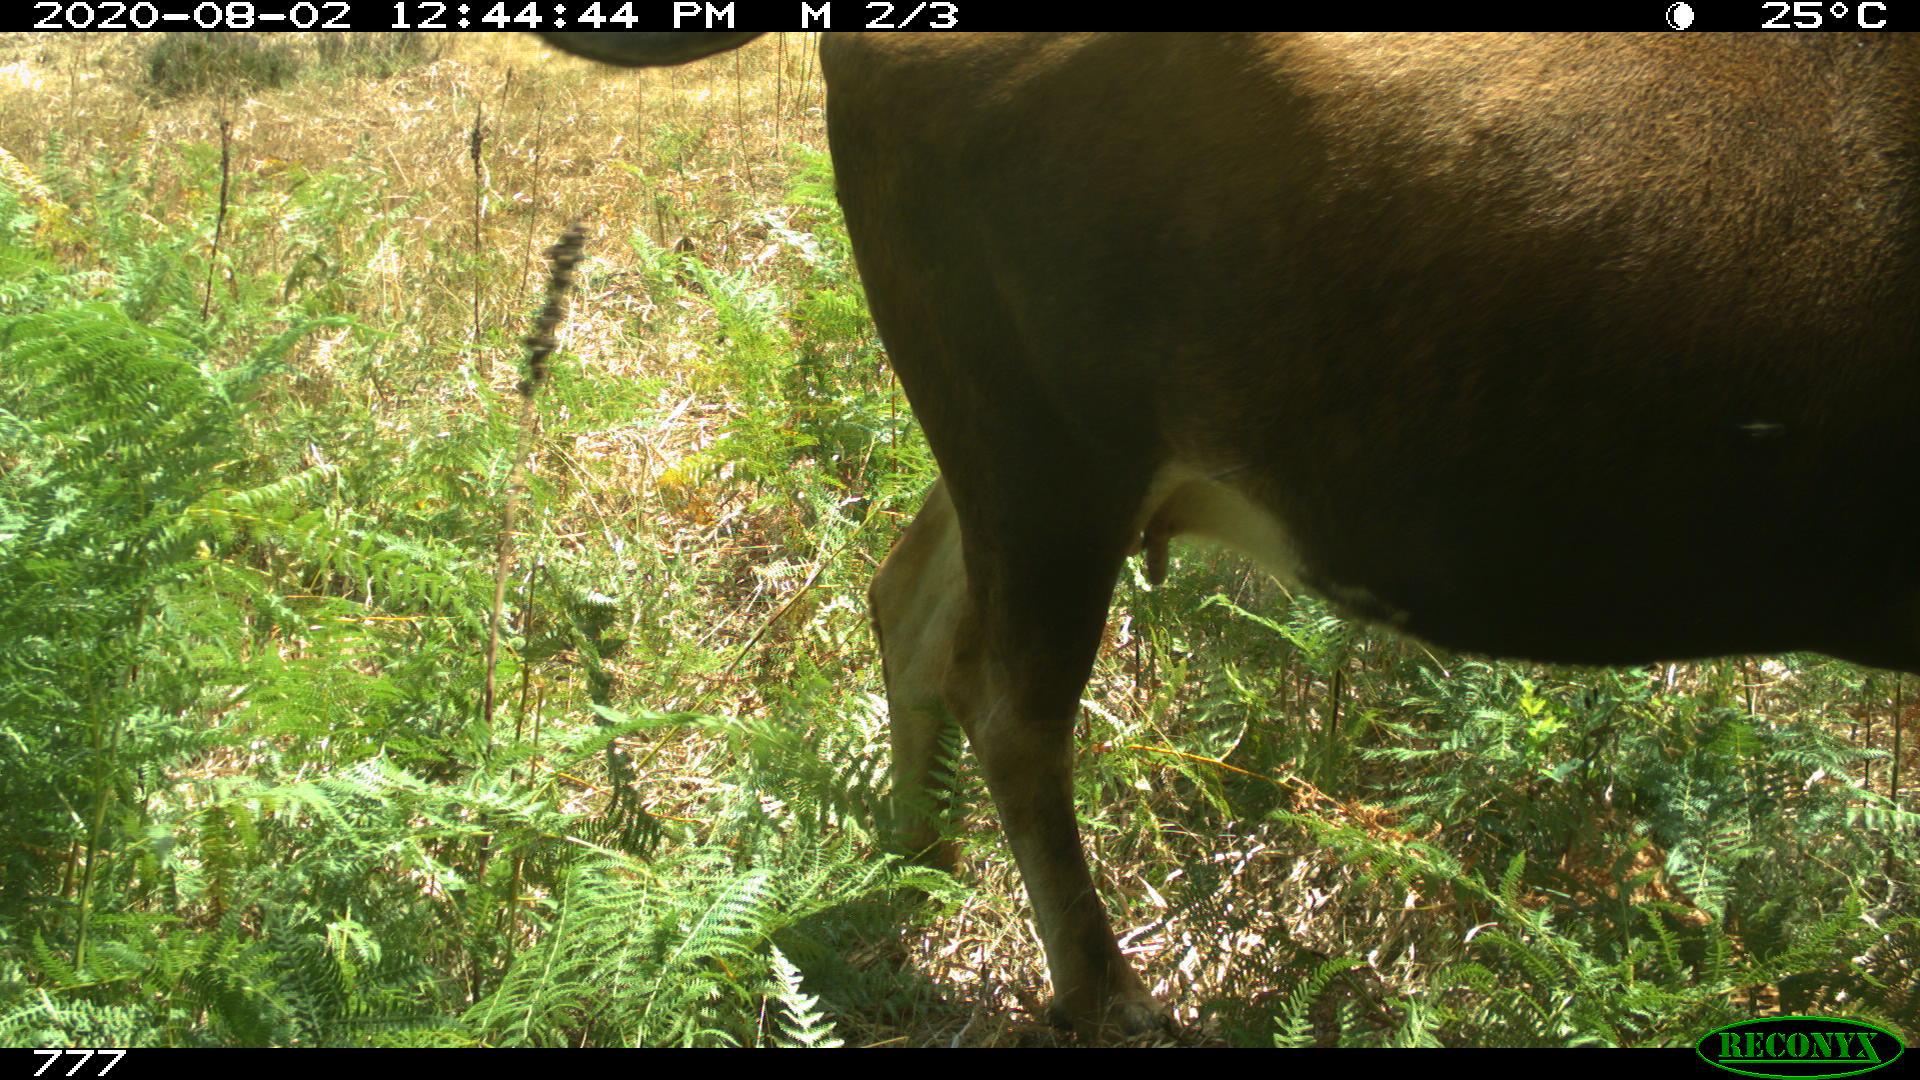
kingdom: Animalia
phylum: Chordata
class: Mammalia
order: Artiodactyla
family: Bovidae
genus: Bos
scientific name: Bos taurus
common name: Domesticated cattle
